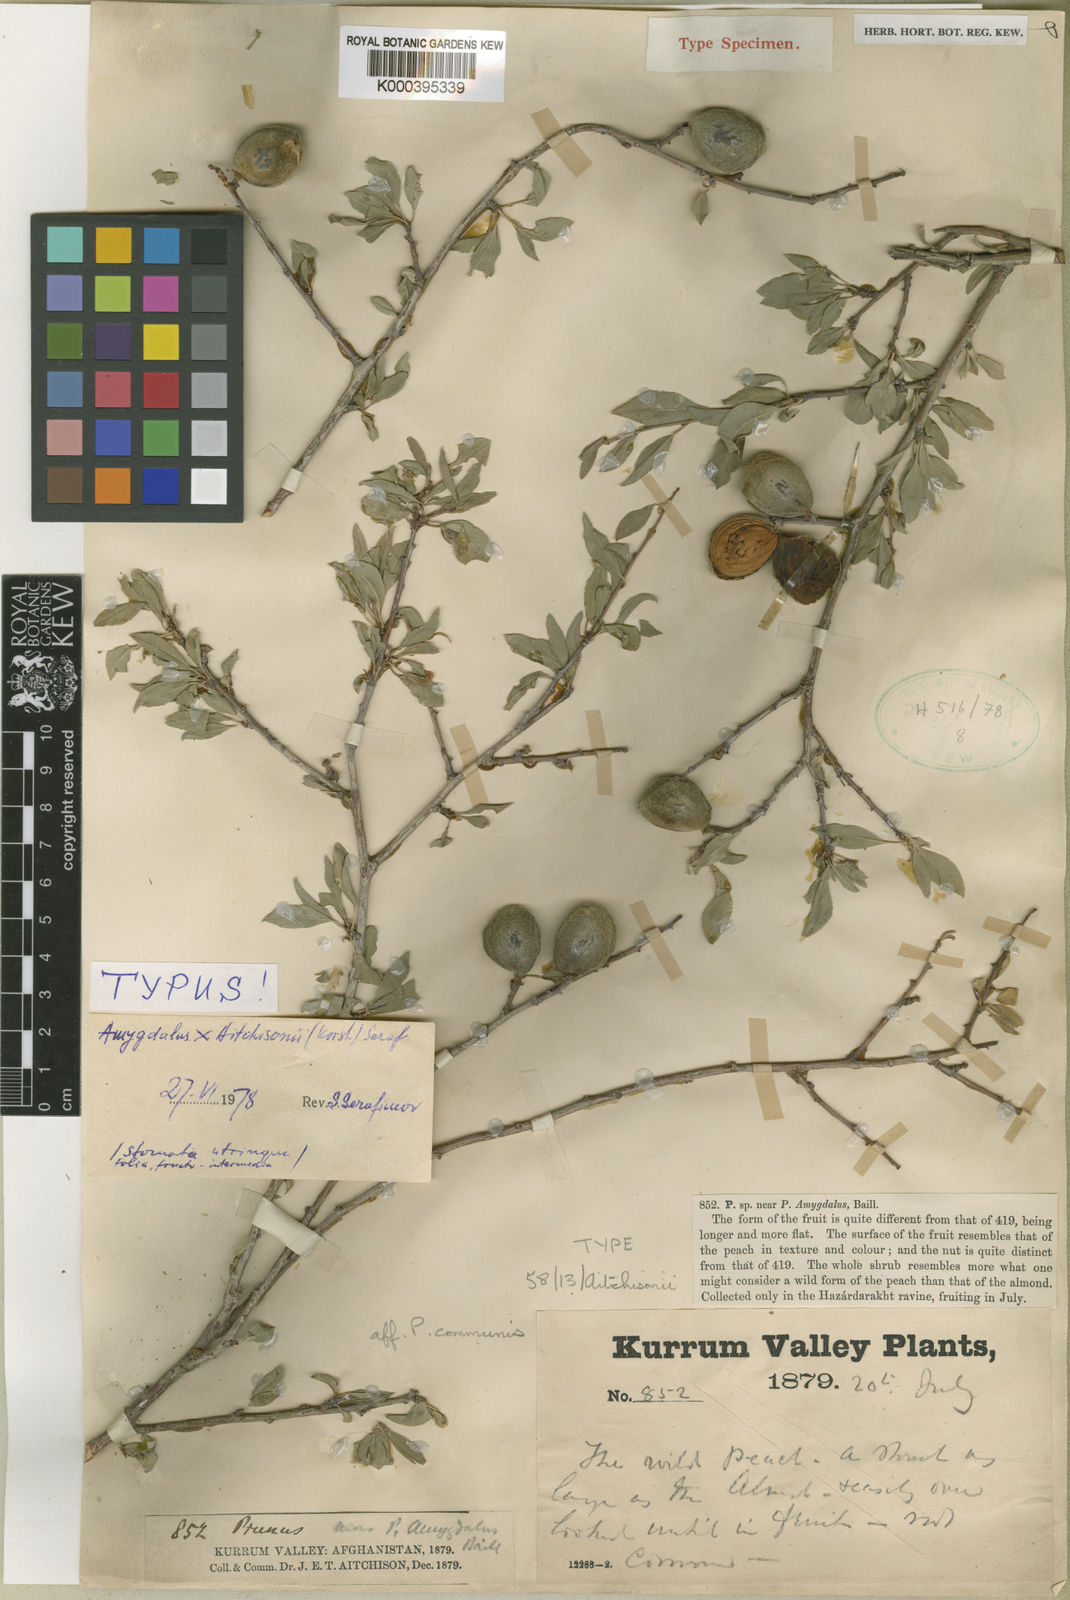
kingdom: Plantae
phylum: Tracheophyta
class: Magnoliopsida
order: Rosales
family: Rosaceae
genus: Prunus
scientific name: Prunus aitchisonii
